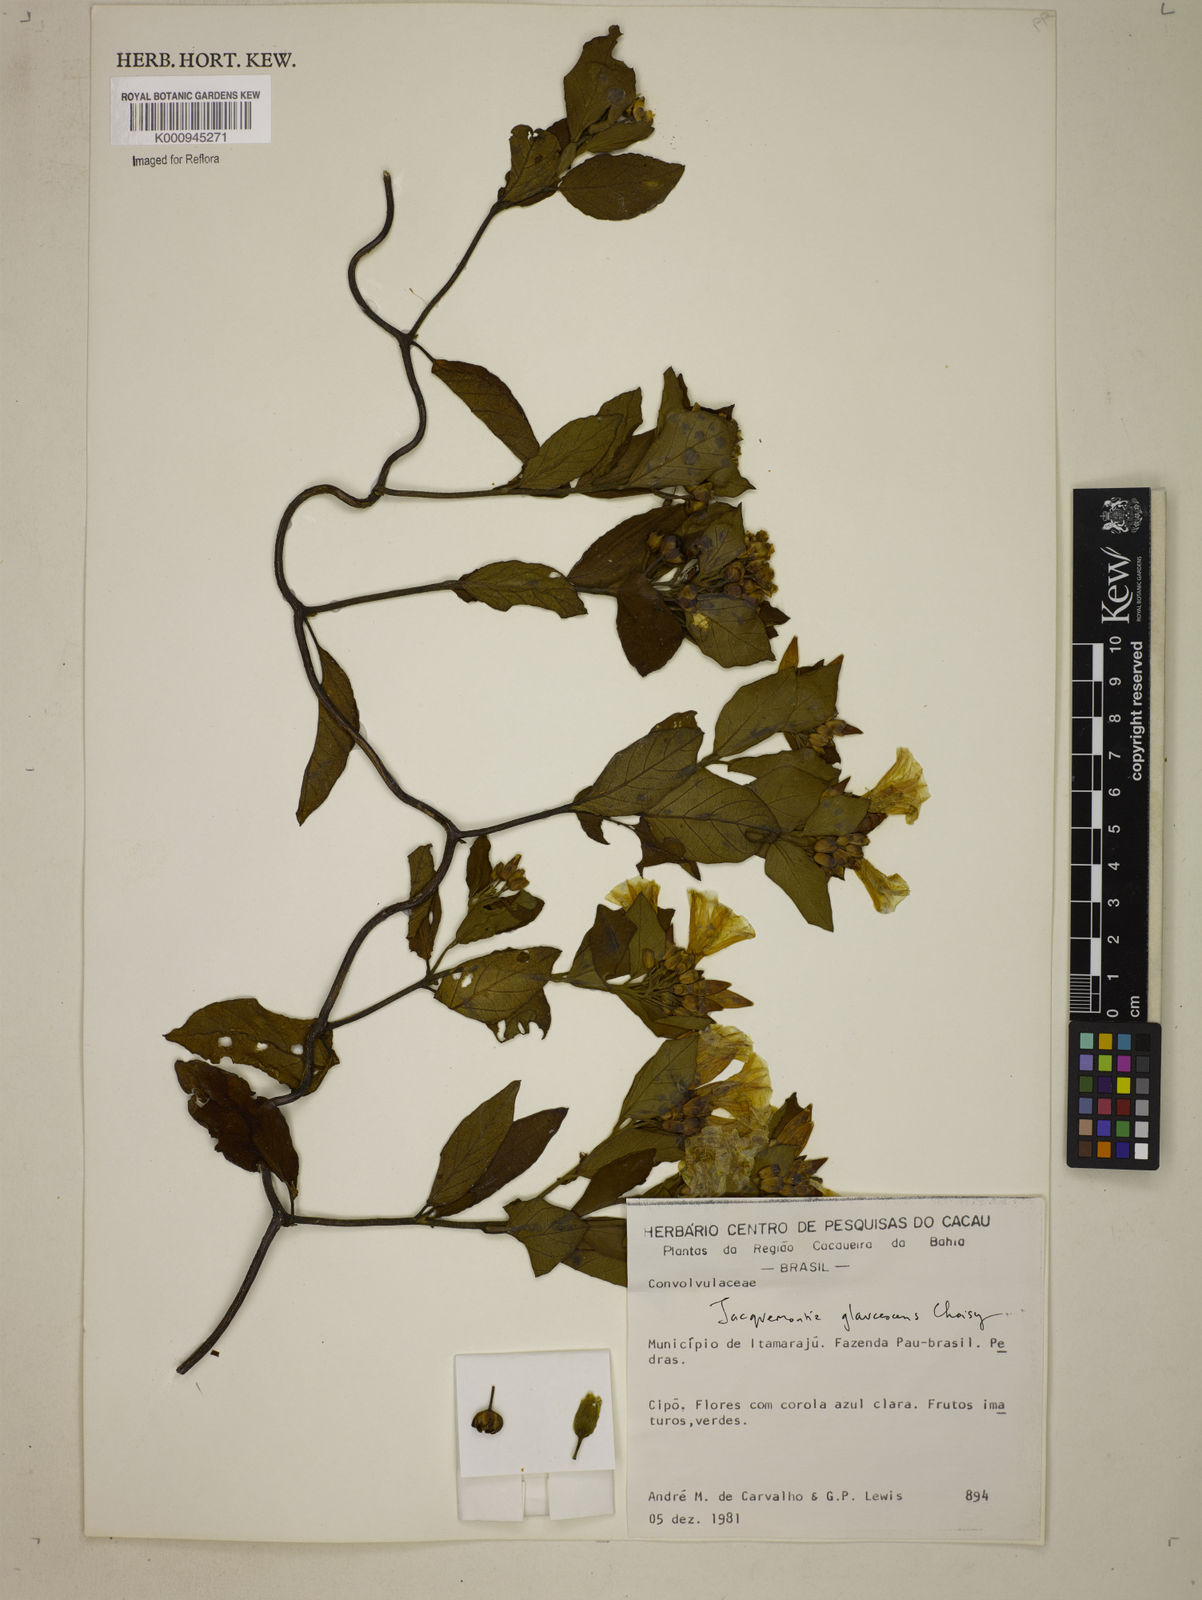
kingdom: Plantae
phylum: Tracheophyta
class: Magnoliopsida
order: Solanales
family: Convolvulaceae
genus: Jacquemontia
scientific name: Jacquemontia glaucescens
